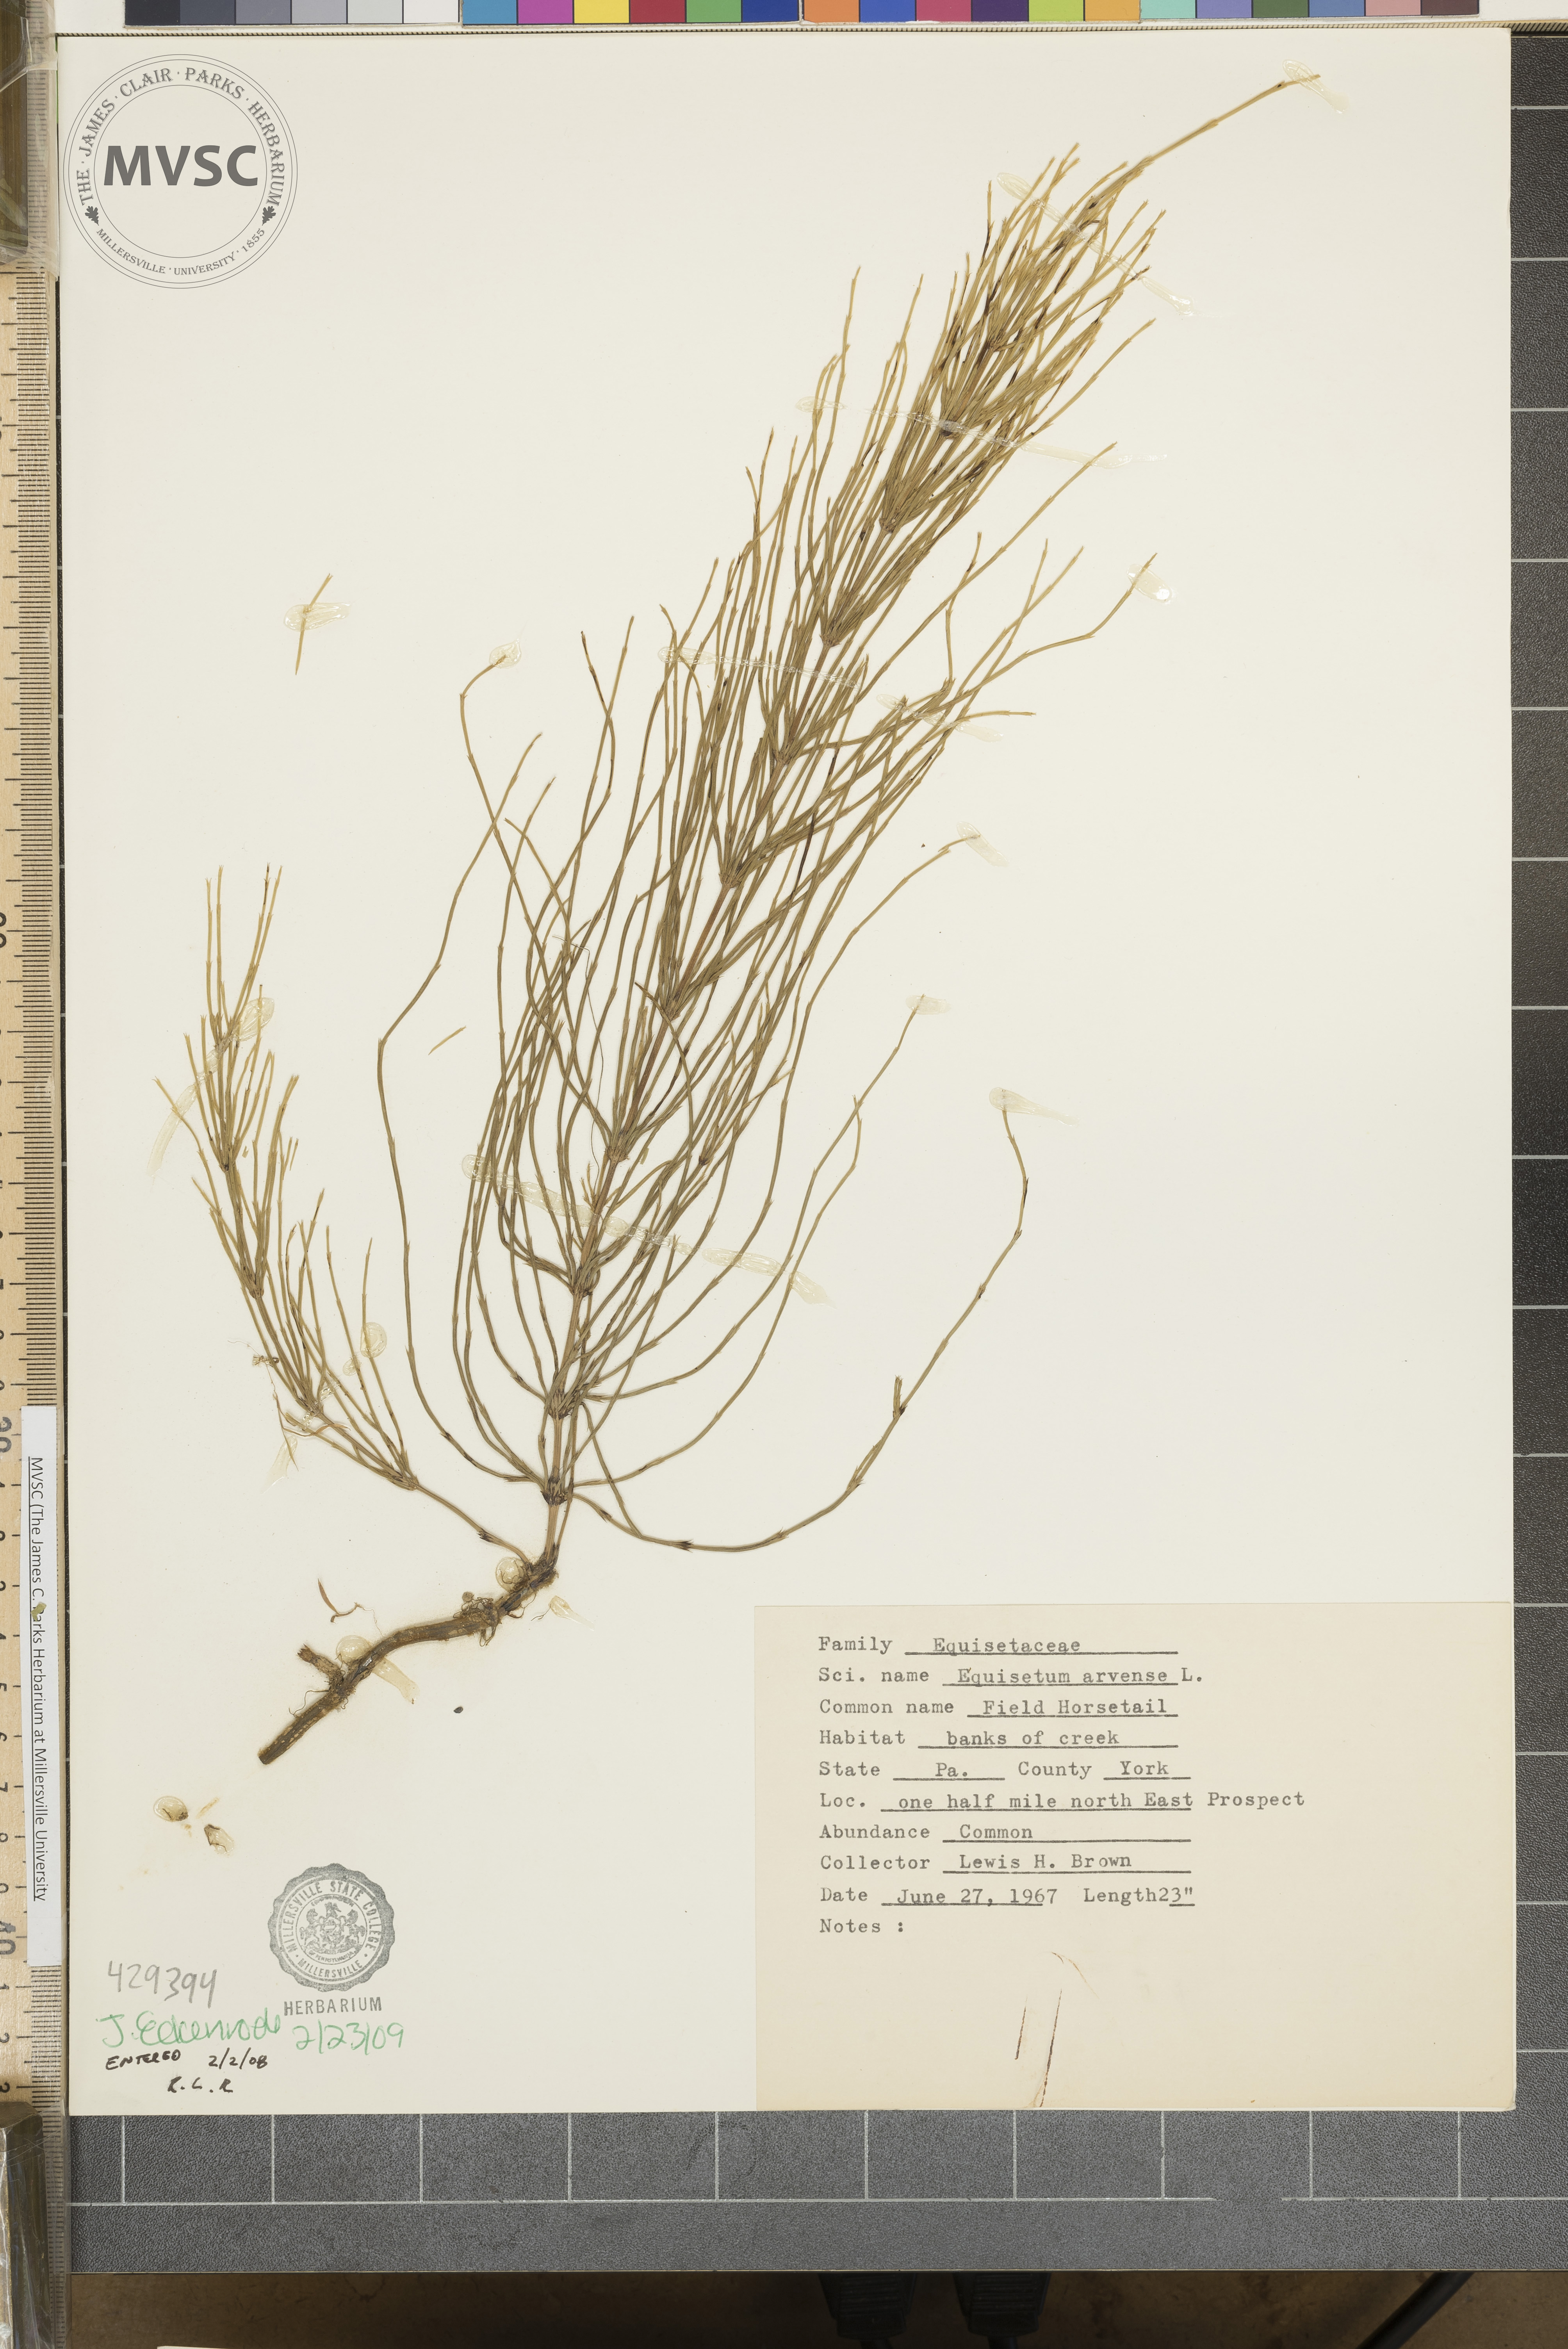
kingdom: Plantae
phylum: Tracheophyta
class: Polypodiopsida
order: Equisetales
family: Equisetaceae
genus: Equisetum
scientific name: Equisetum arvense
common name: Field horsetail
